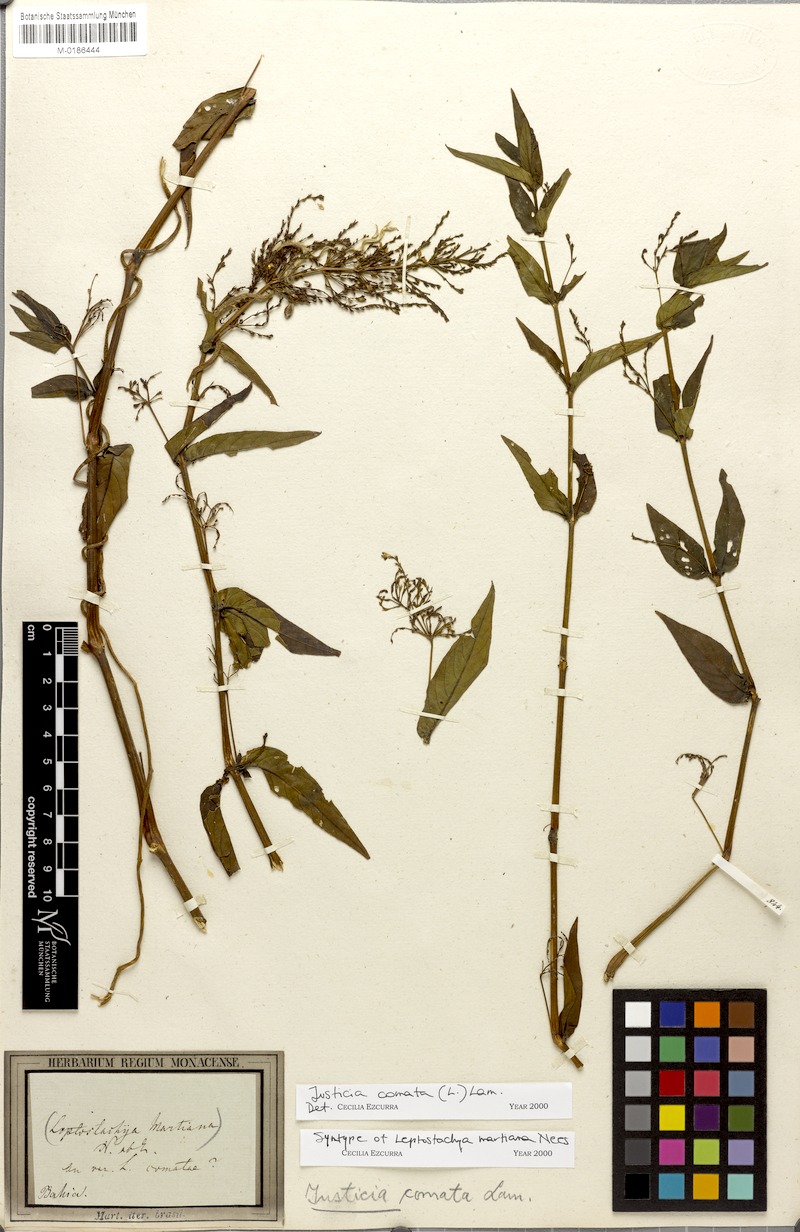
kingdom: Plantae
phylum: Tracheophyta
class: Magnoliopsida
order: Lamiales
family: Acanthaceae
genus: Dianthera
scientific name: Dianthera comata
